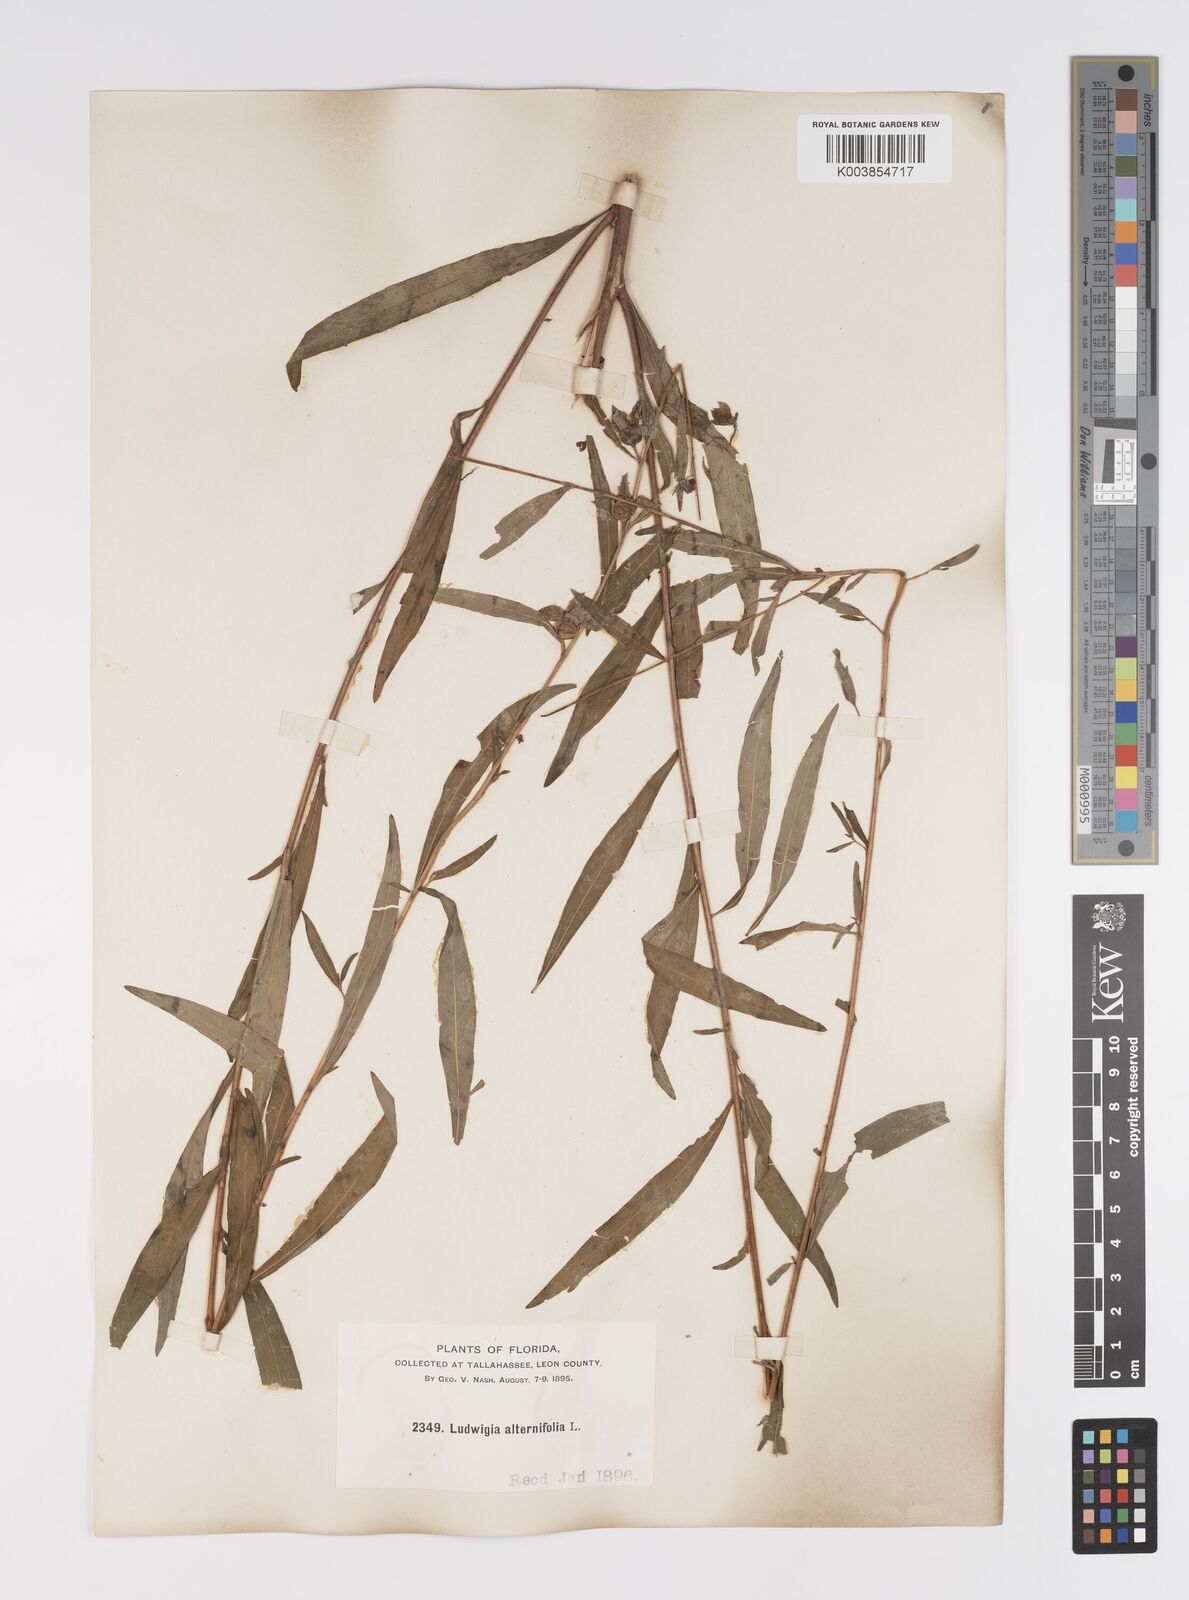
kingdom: Plantae
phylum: Tracheophyta
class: Magnoliopsida
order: Myrtales
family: Onagraceae
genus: Ludwigia
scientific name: Ludwigia alternifolia
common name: Rattlebox
